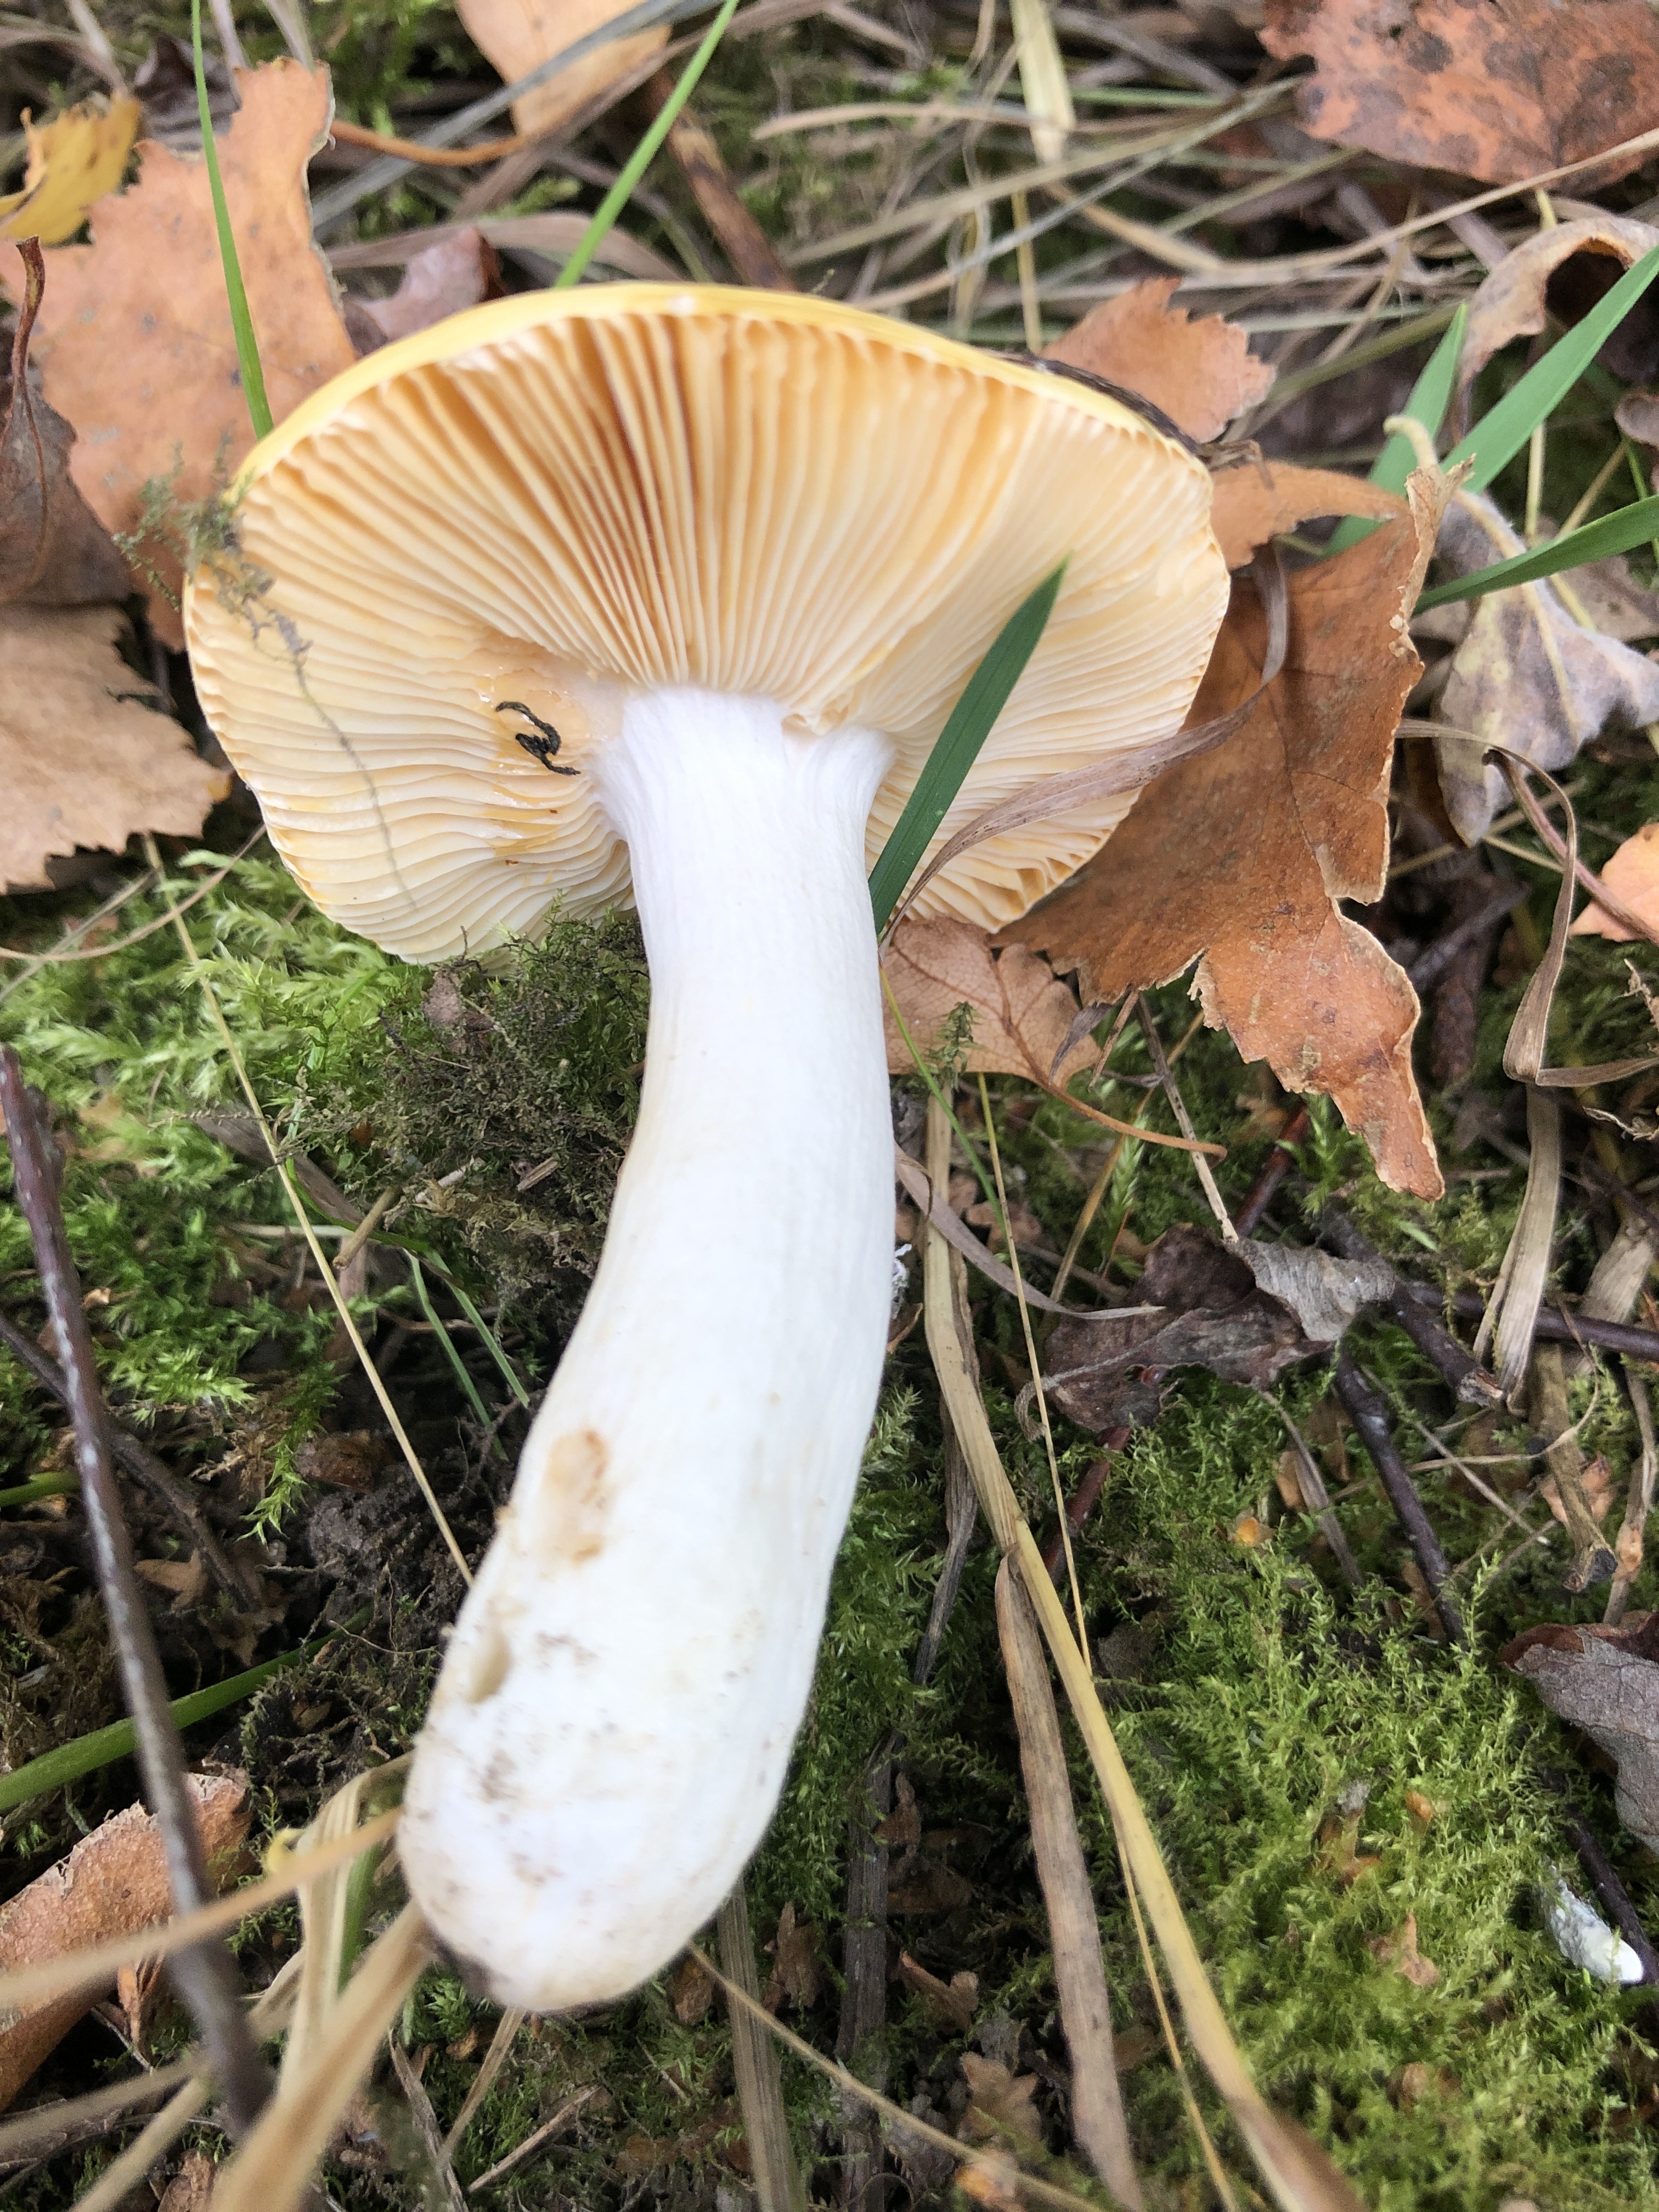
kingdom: Fungi
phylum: Basidiomycota
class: Agaricomycetes
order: Russulales
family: Russulaceae
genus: Russula
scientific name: Russula risigallina
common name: Golden brittlegill
